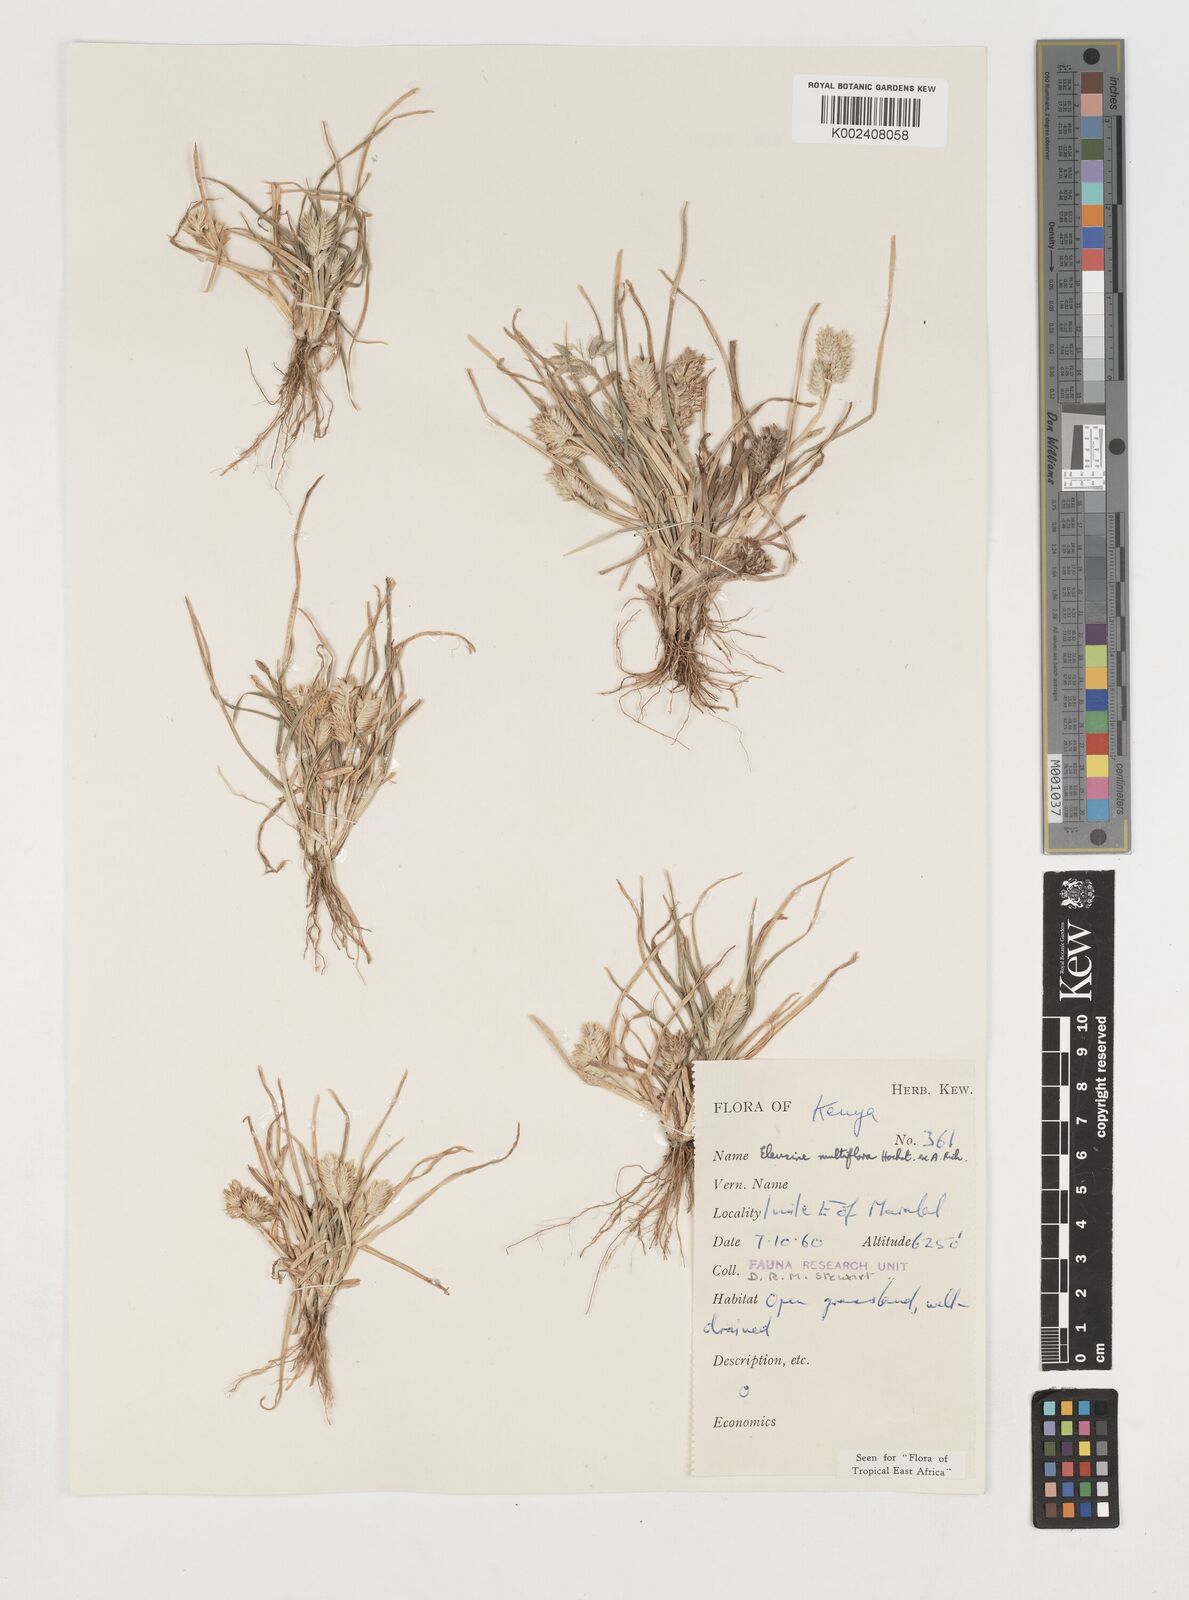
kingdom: Plantae
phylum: Tracheophyta
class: Liliopsida
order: Poales
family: Poaceae
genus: Eleusine
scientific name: Eleusine multiflora
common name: Fat-spiked yard-grass
